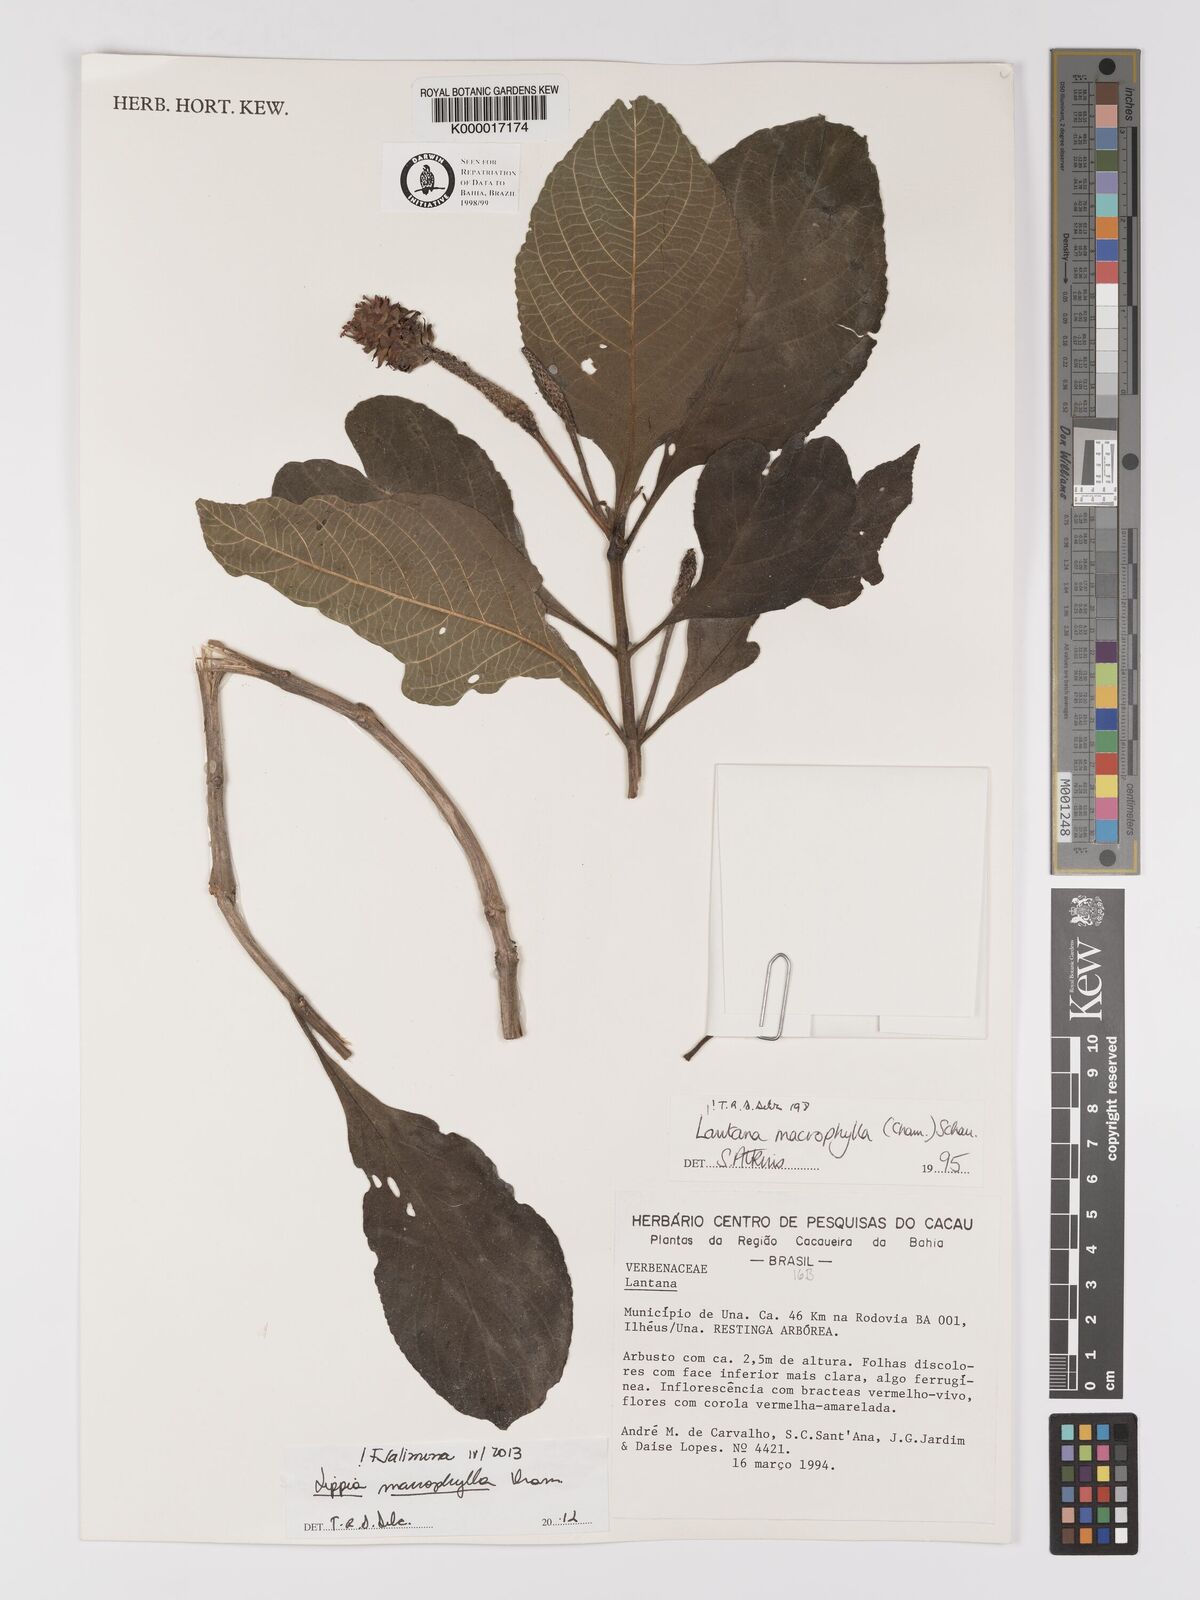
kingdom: Plantae
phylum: Tracheophyta
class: Magnoliopsida
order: Lamiales
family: Verbenaceae
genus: Lippia
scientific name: Lippia macrophylla
